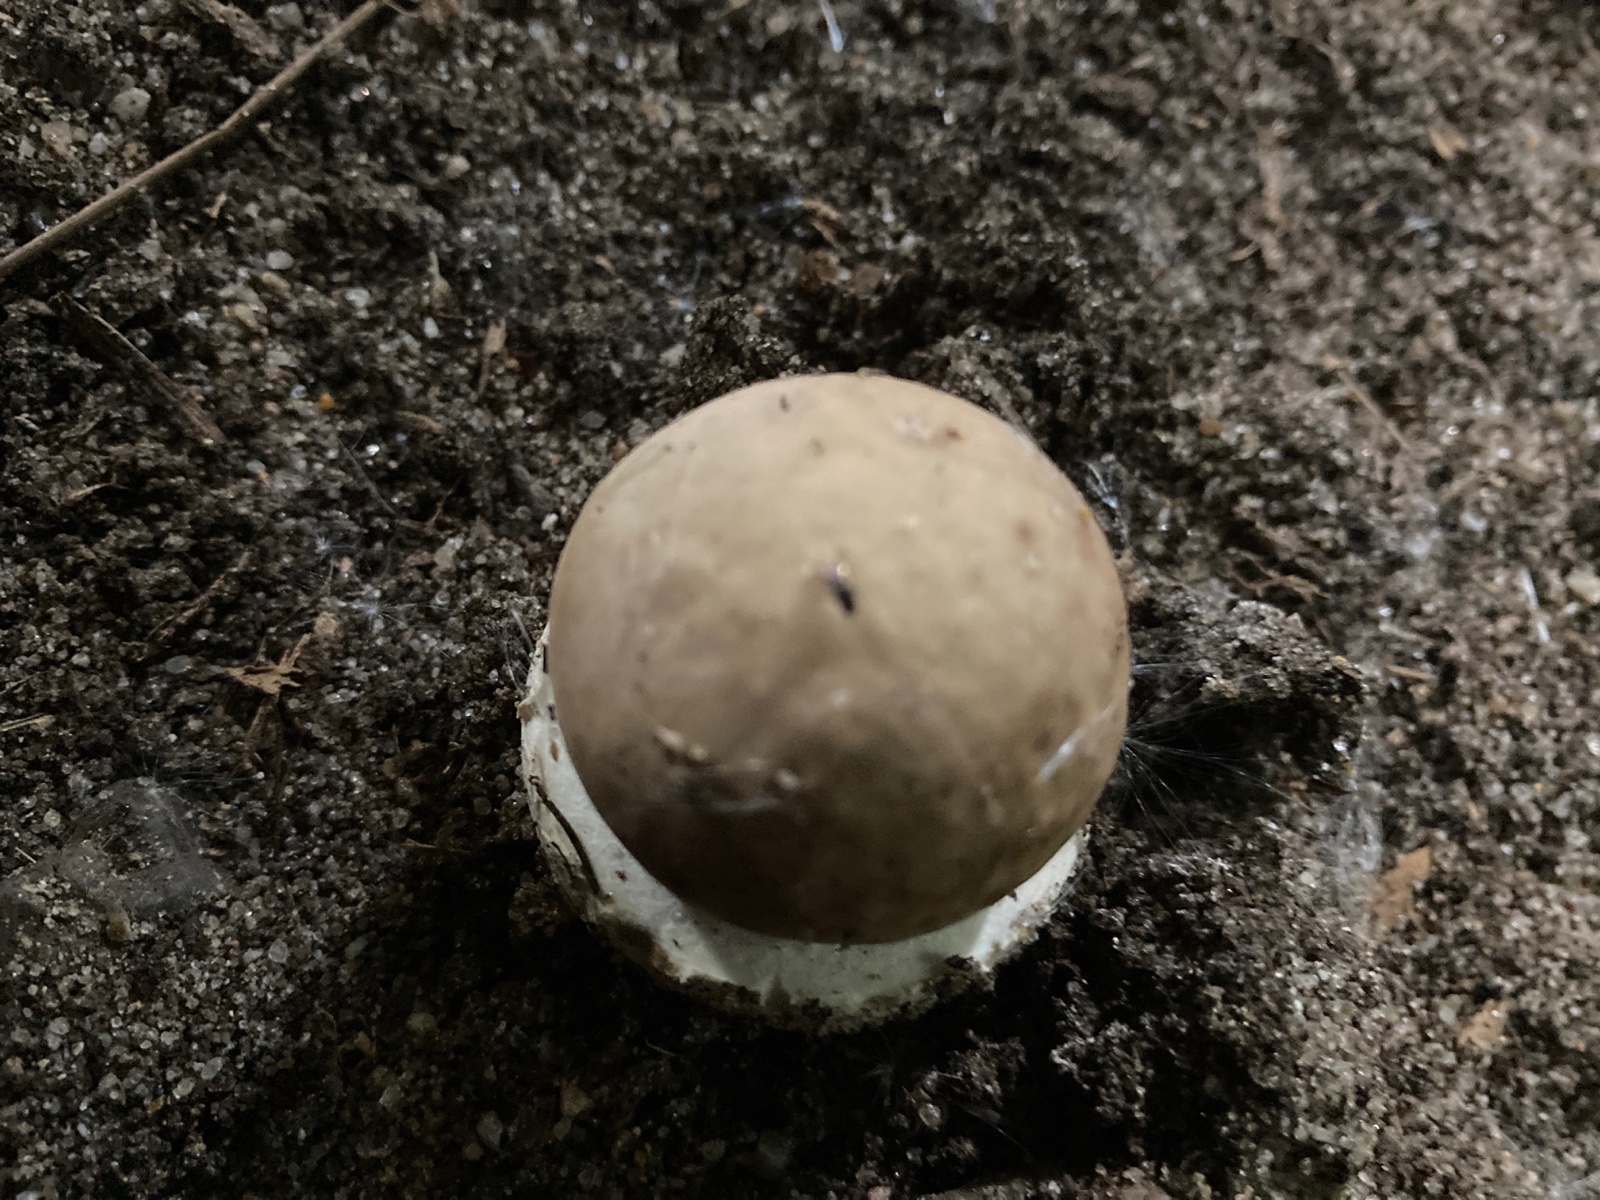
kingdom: Fungi
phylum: Basidiomycota
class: Agaricomycetes
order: Agaricales
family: Agaricaceae
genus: Chlorophyllum
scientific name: Chlorophyllum
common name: rabarberhat
